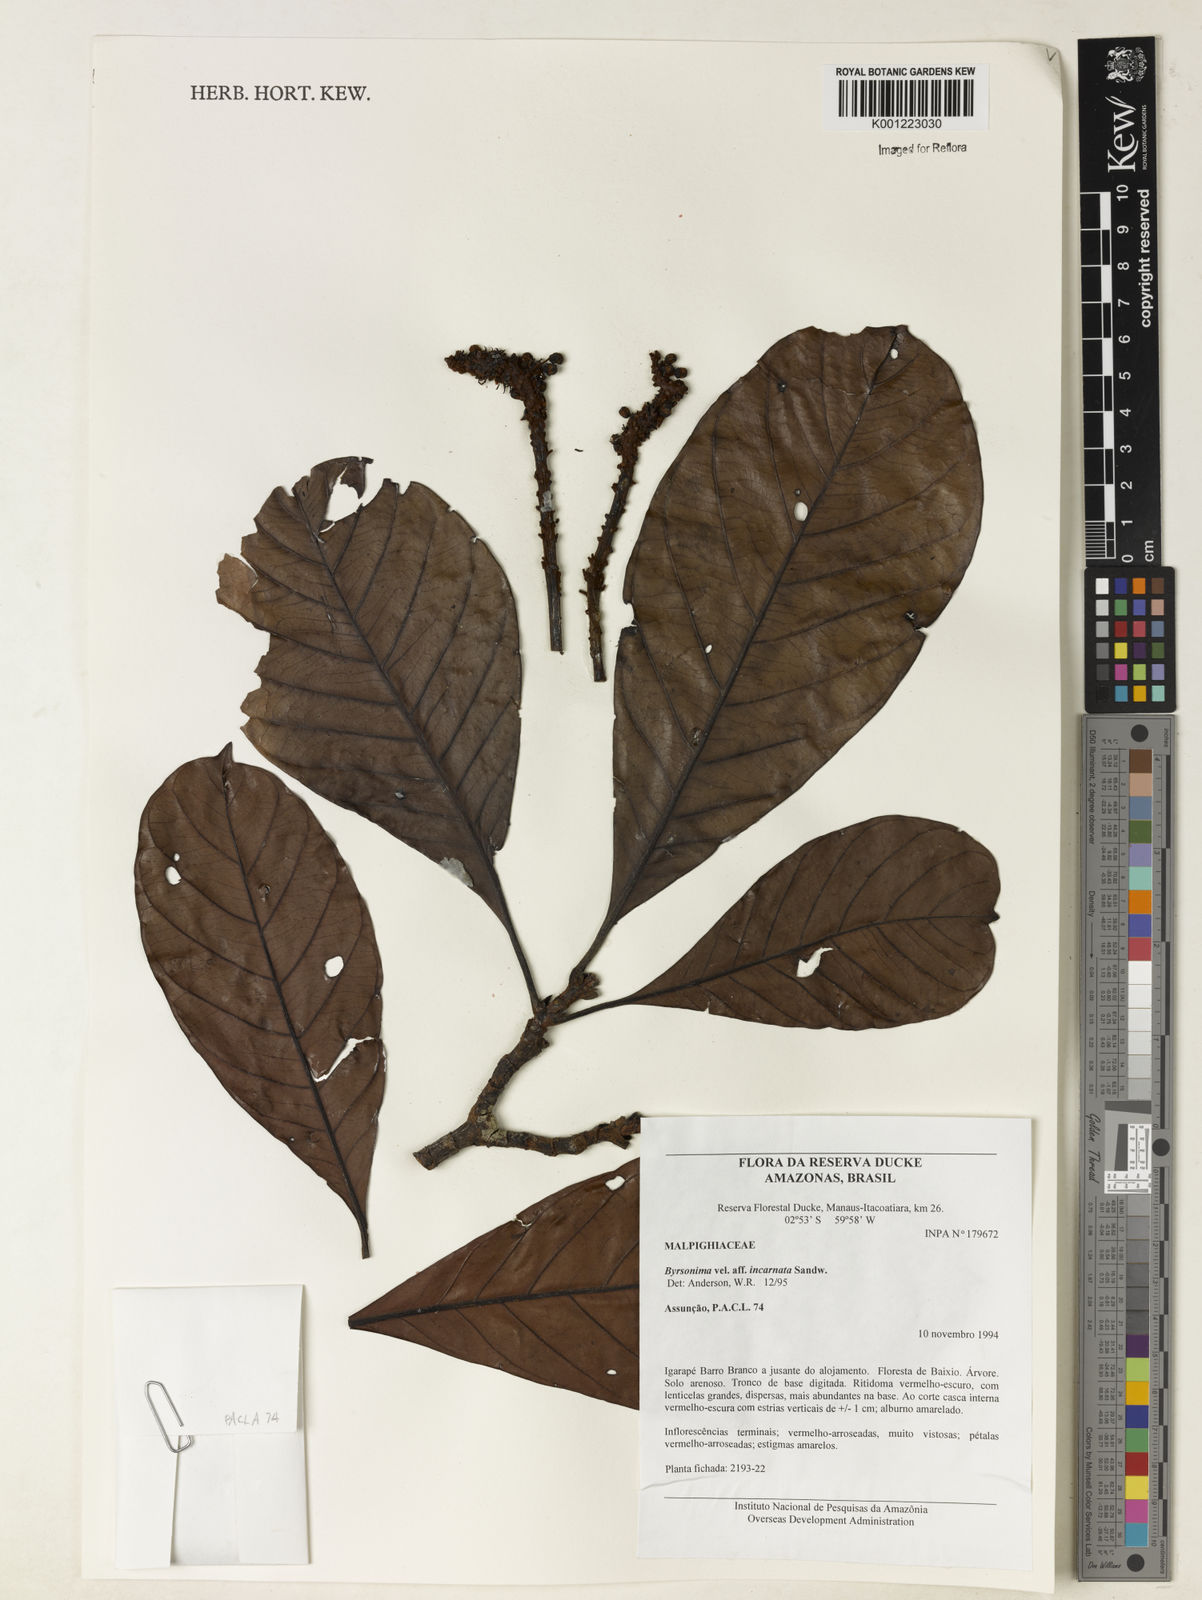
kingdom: Plantae
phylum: Tracheophyta
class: Magnoliopsida
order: Malpighiales
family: Malpighiaceae
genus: Byrsonima
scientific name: Byrsonima incarnata
